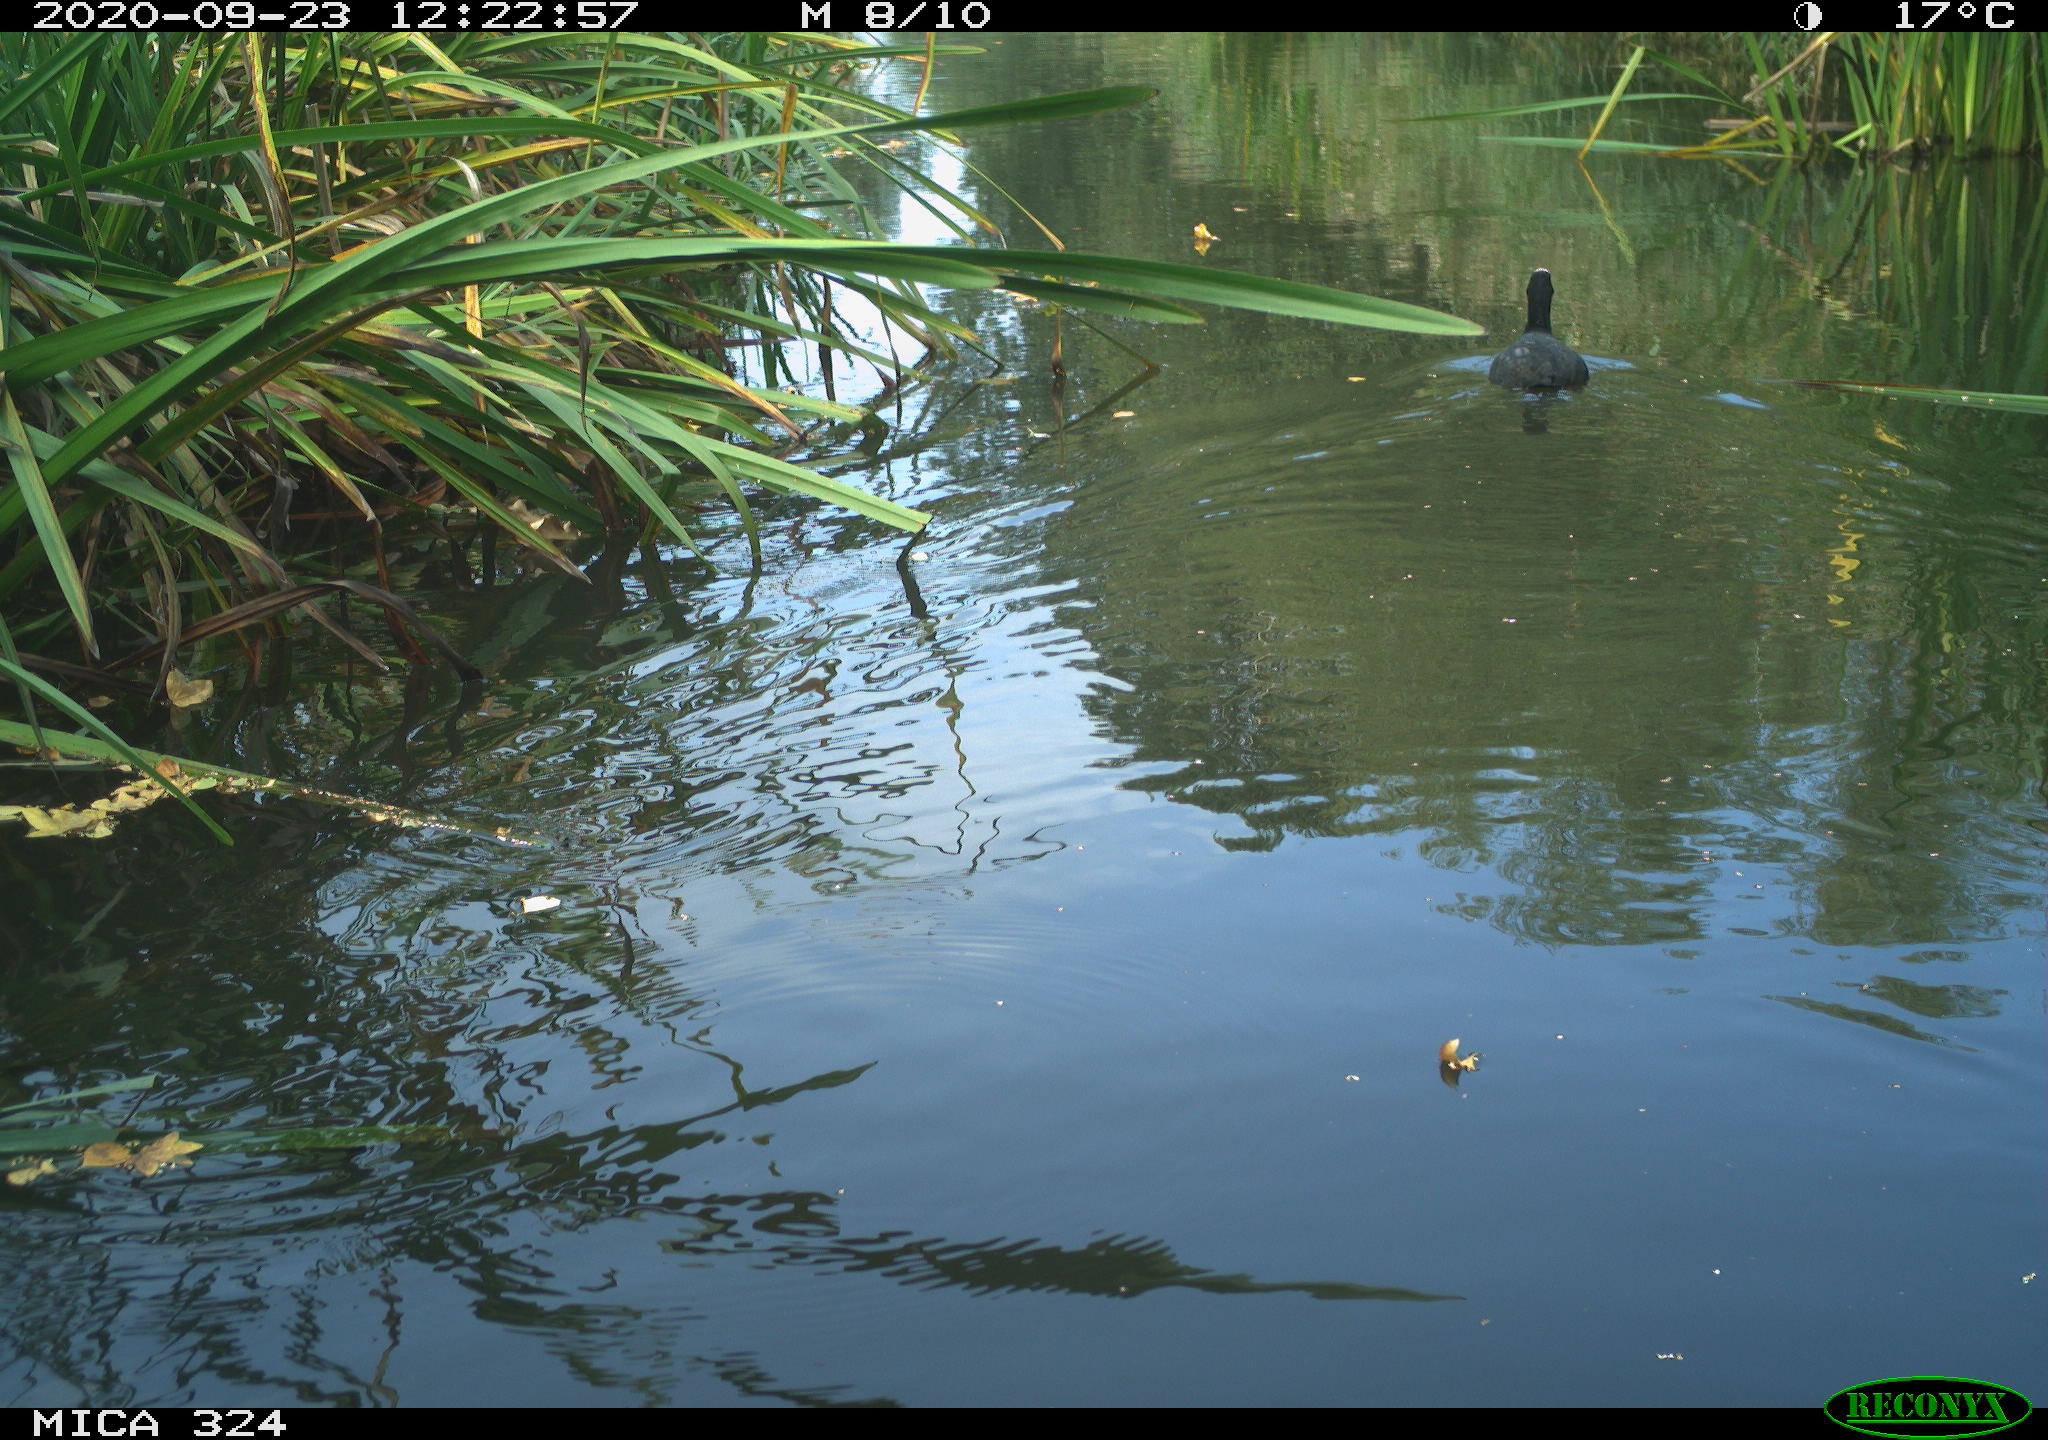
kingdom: Animalia
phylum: Chordata
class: Aves
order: Gruiformes
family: Rallidae
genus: Fulica
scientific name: Fulica atra
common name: Eurasian coot
